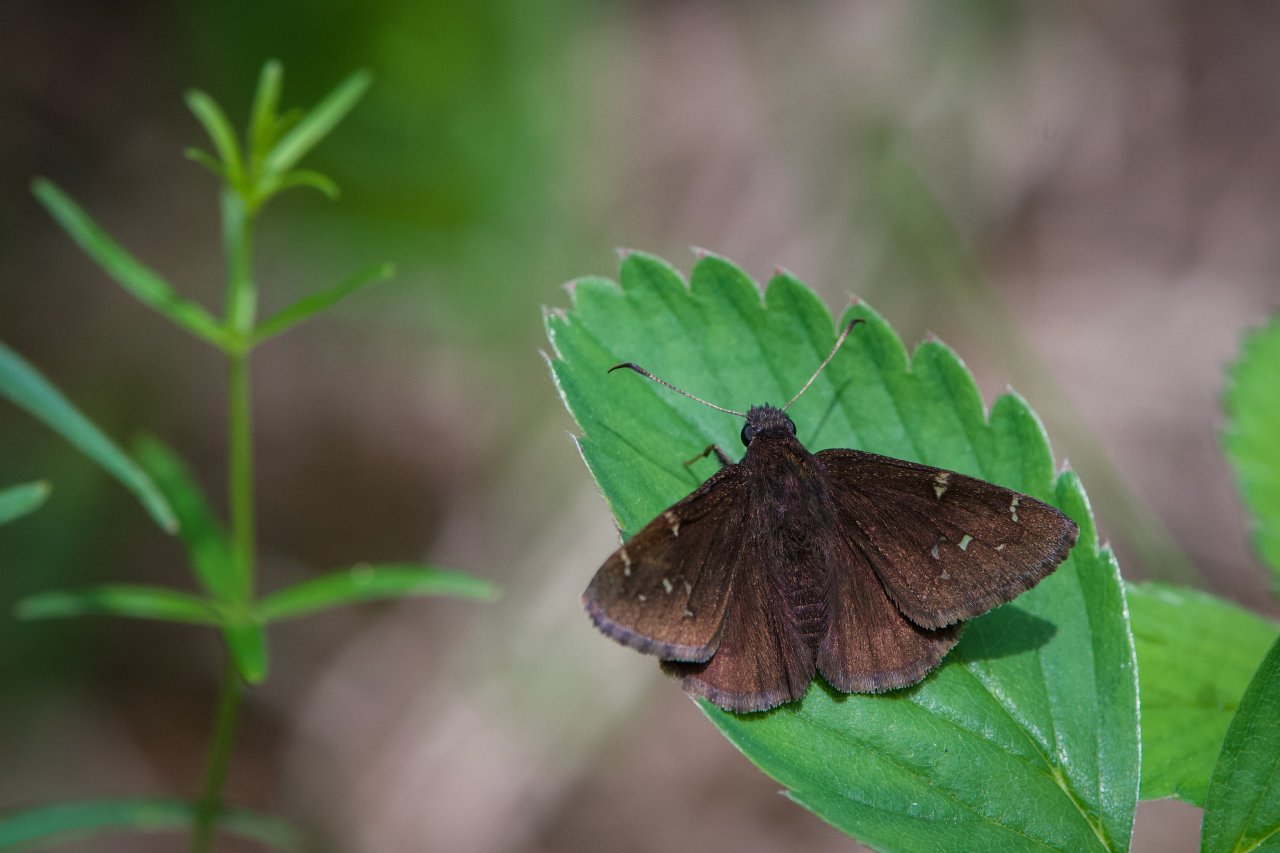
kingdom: Animalia
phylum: Arthropoda
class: Insecta
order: Lepidoptera
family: Hesperiidae
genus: Autochton
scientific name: Autochton
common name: Northern Cloudywing
